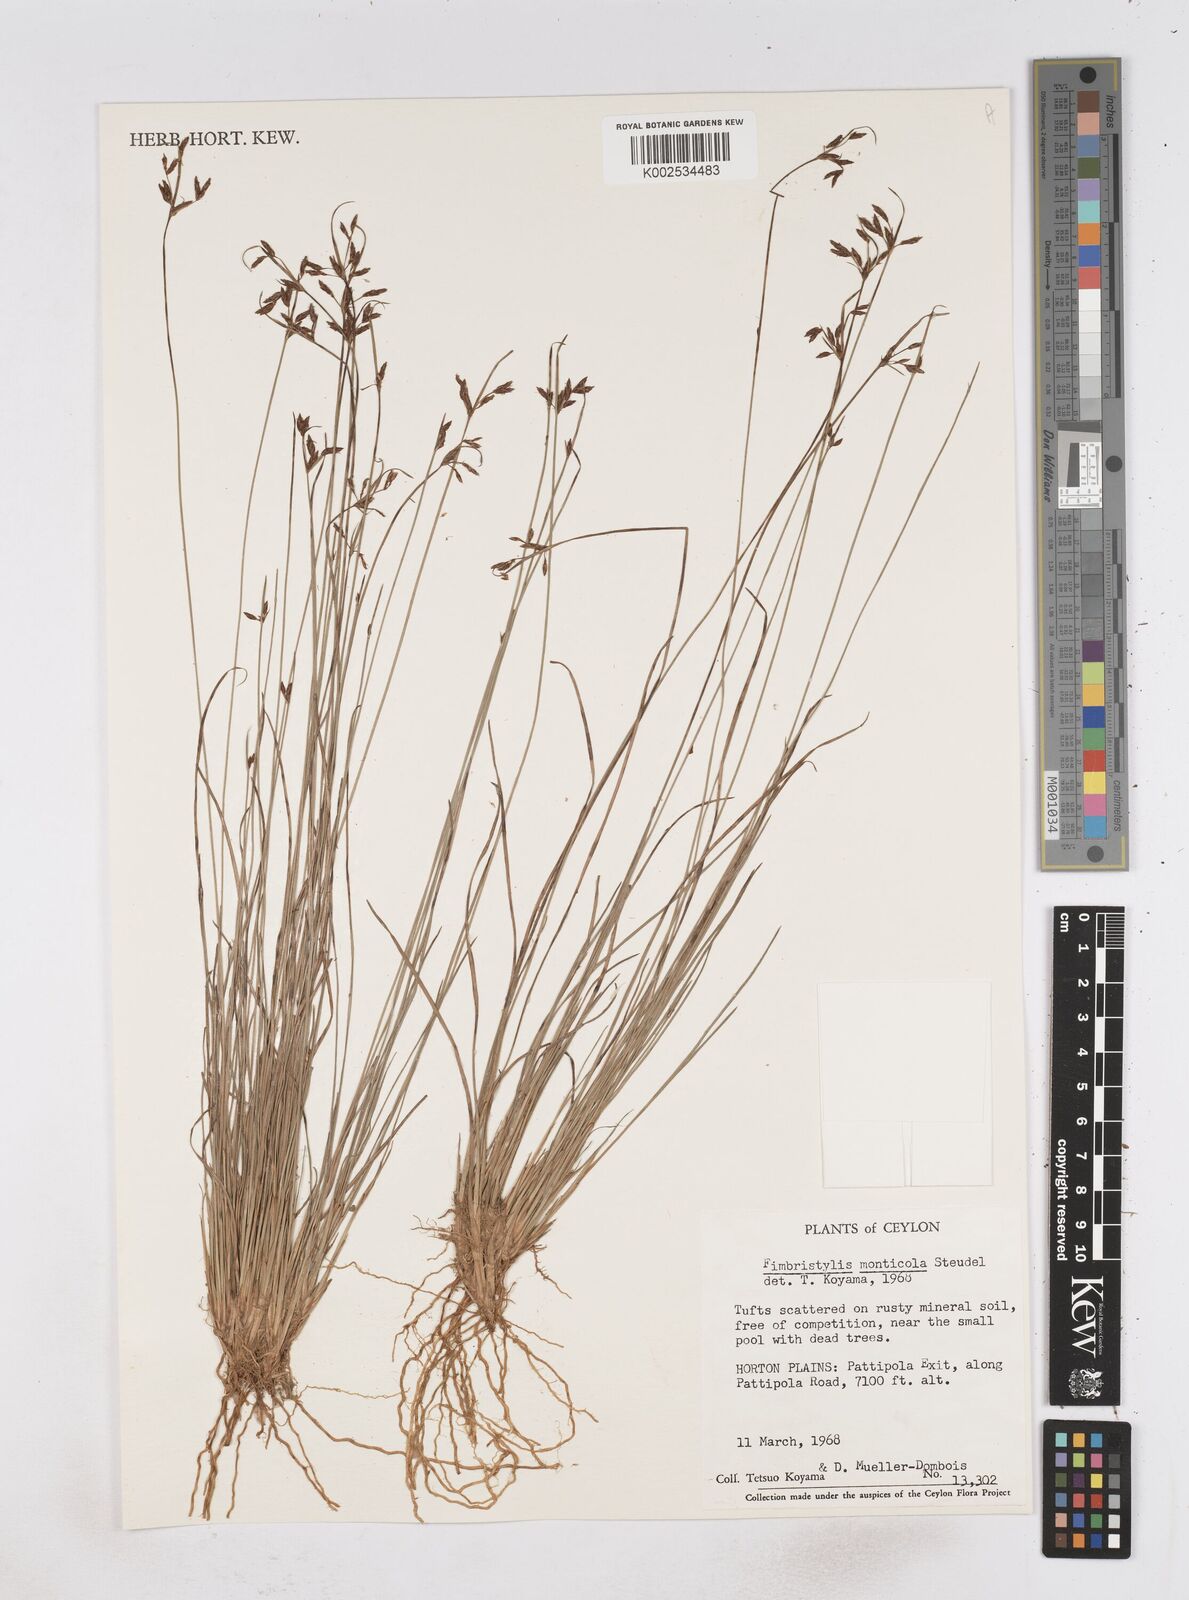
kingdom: Plantae
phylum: Tracheophyta
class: Liliopsida
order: Poales
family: Cyperaceae
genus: Fimbristylis
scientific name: Fimbristylis monticola
